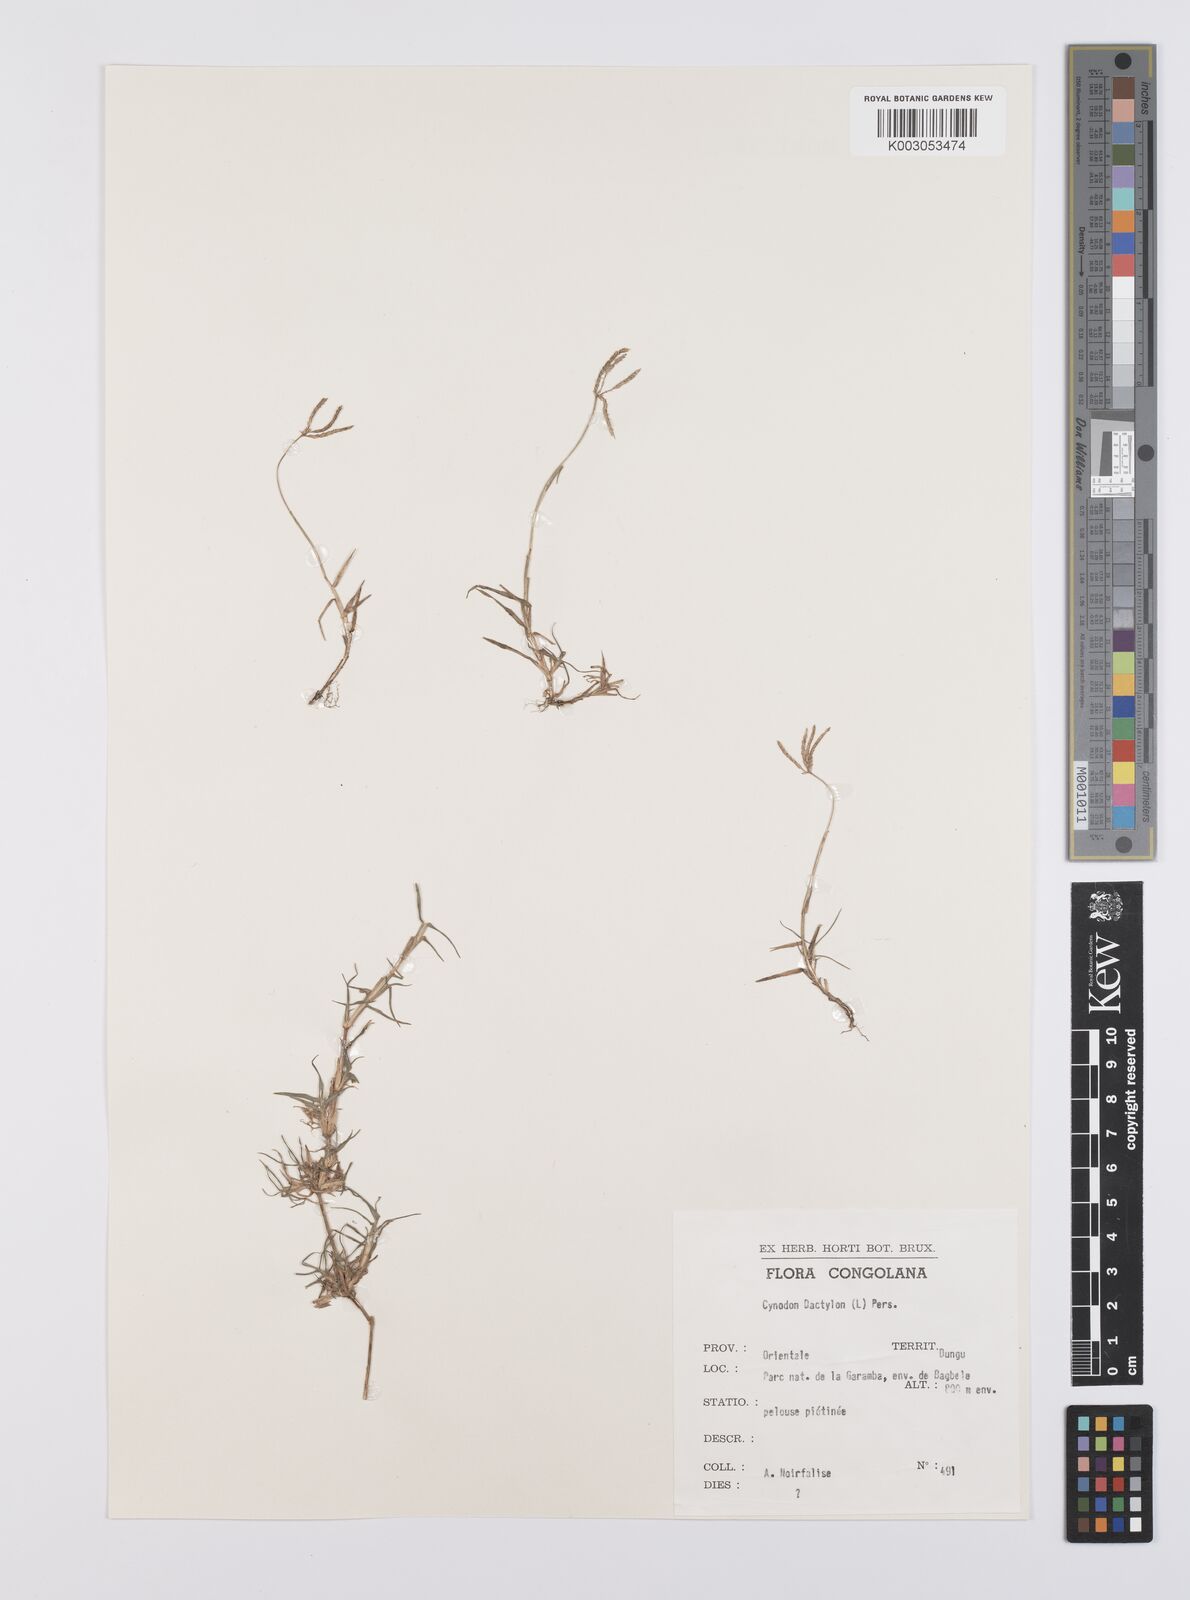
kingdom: Plantae
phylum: Tracheophyta
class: Liliopsida
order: Poales
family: Poaceae
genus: Cynodon
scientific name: Cynodon dactylon
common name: Bermuda grass
